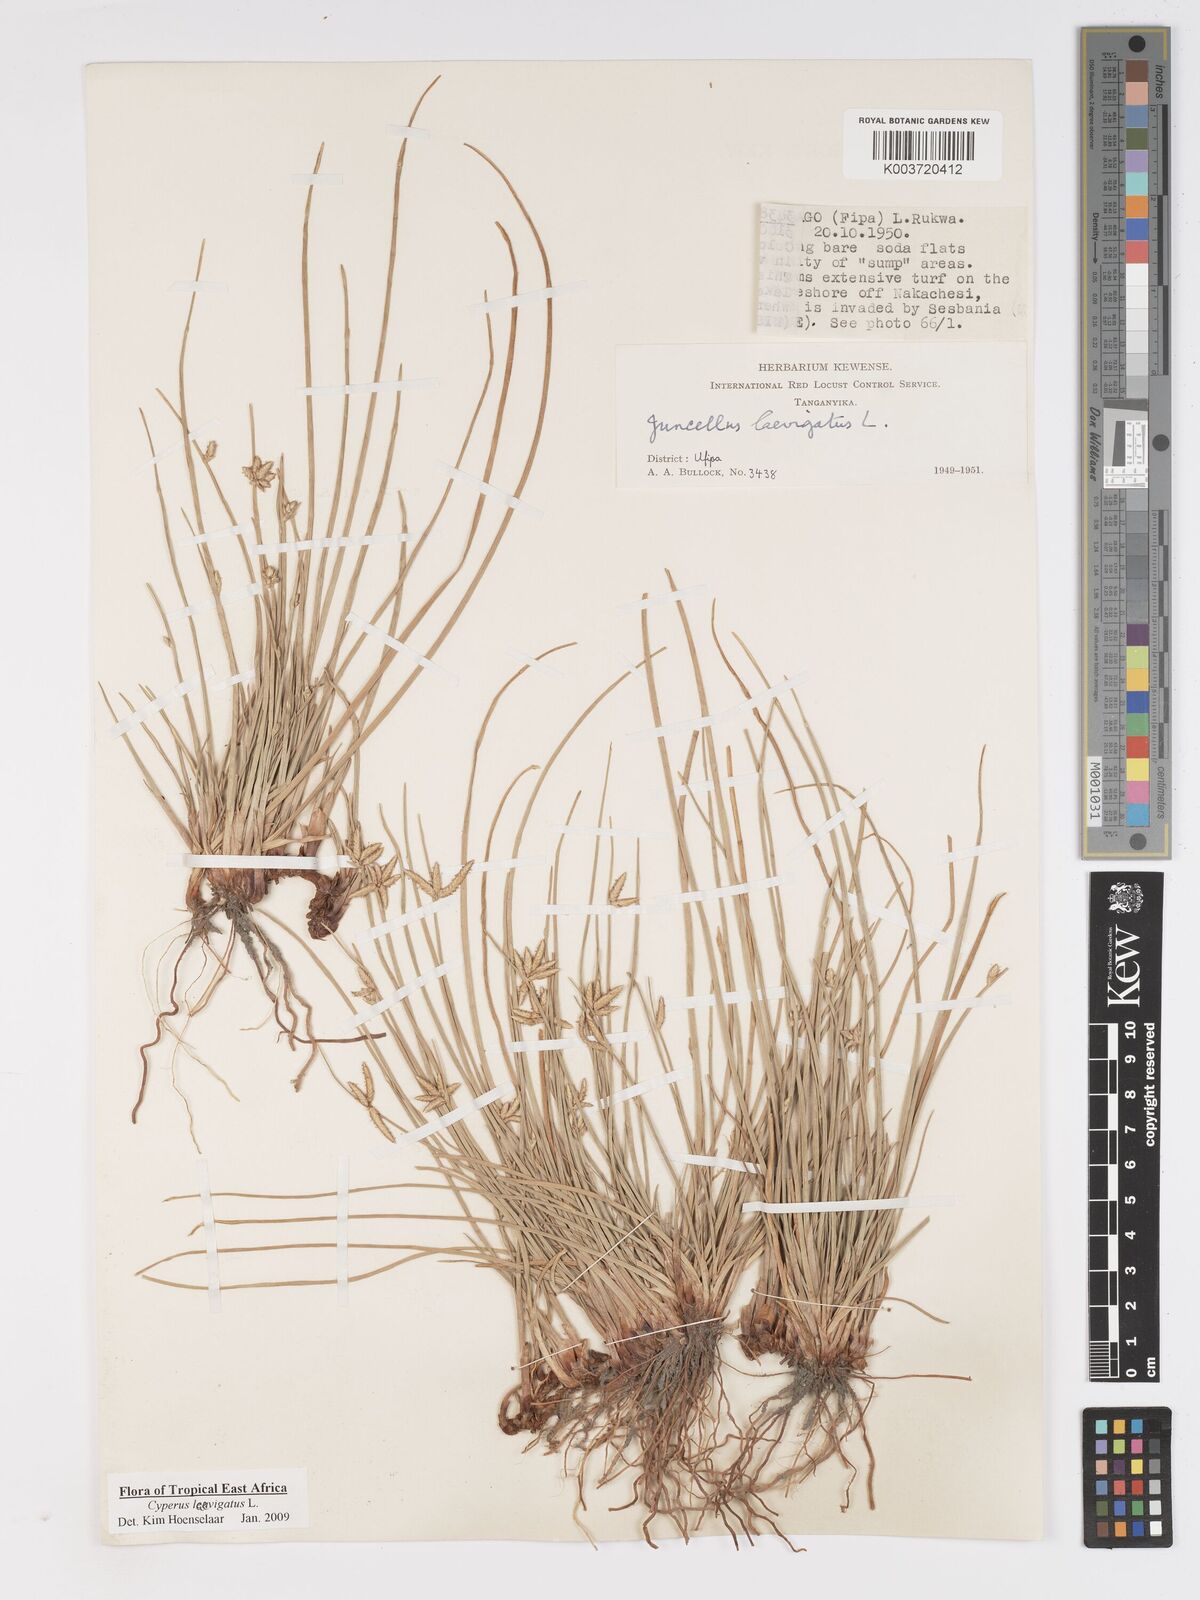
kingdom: Plantae
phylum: Tracheophyta
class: Liliopsida
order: Poales
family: Cyperaceae
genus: Cyperus
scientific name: Cyperus laevigatus
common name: Smooth flat sedge
